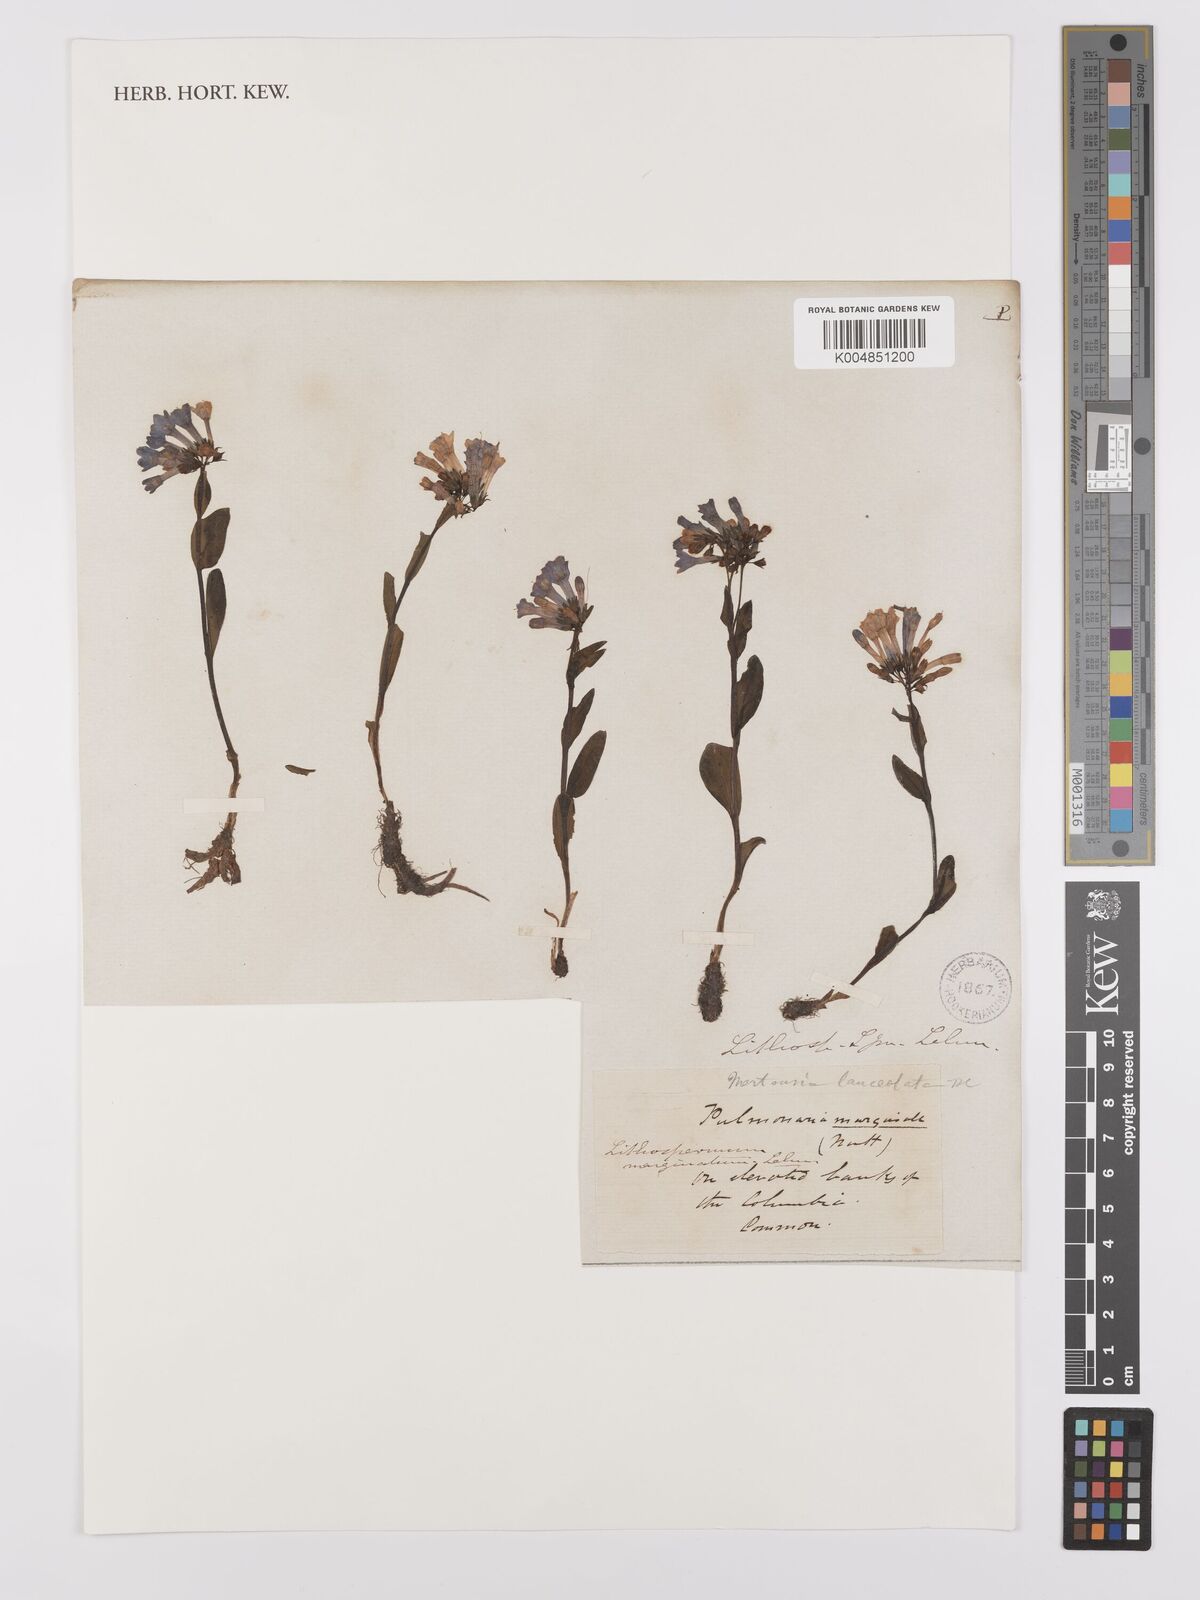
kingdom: Plantae
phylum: Tracheophyta
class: Magnoliopsida
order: Boraginales
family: Boraginaceae
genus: Mertensia
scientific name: Mertensia lanceolata
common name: Lance-leaved bluebells
